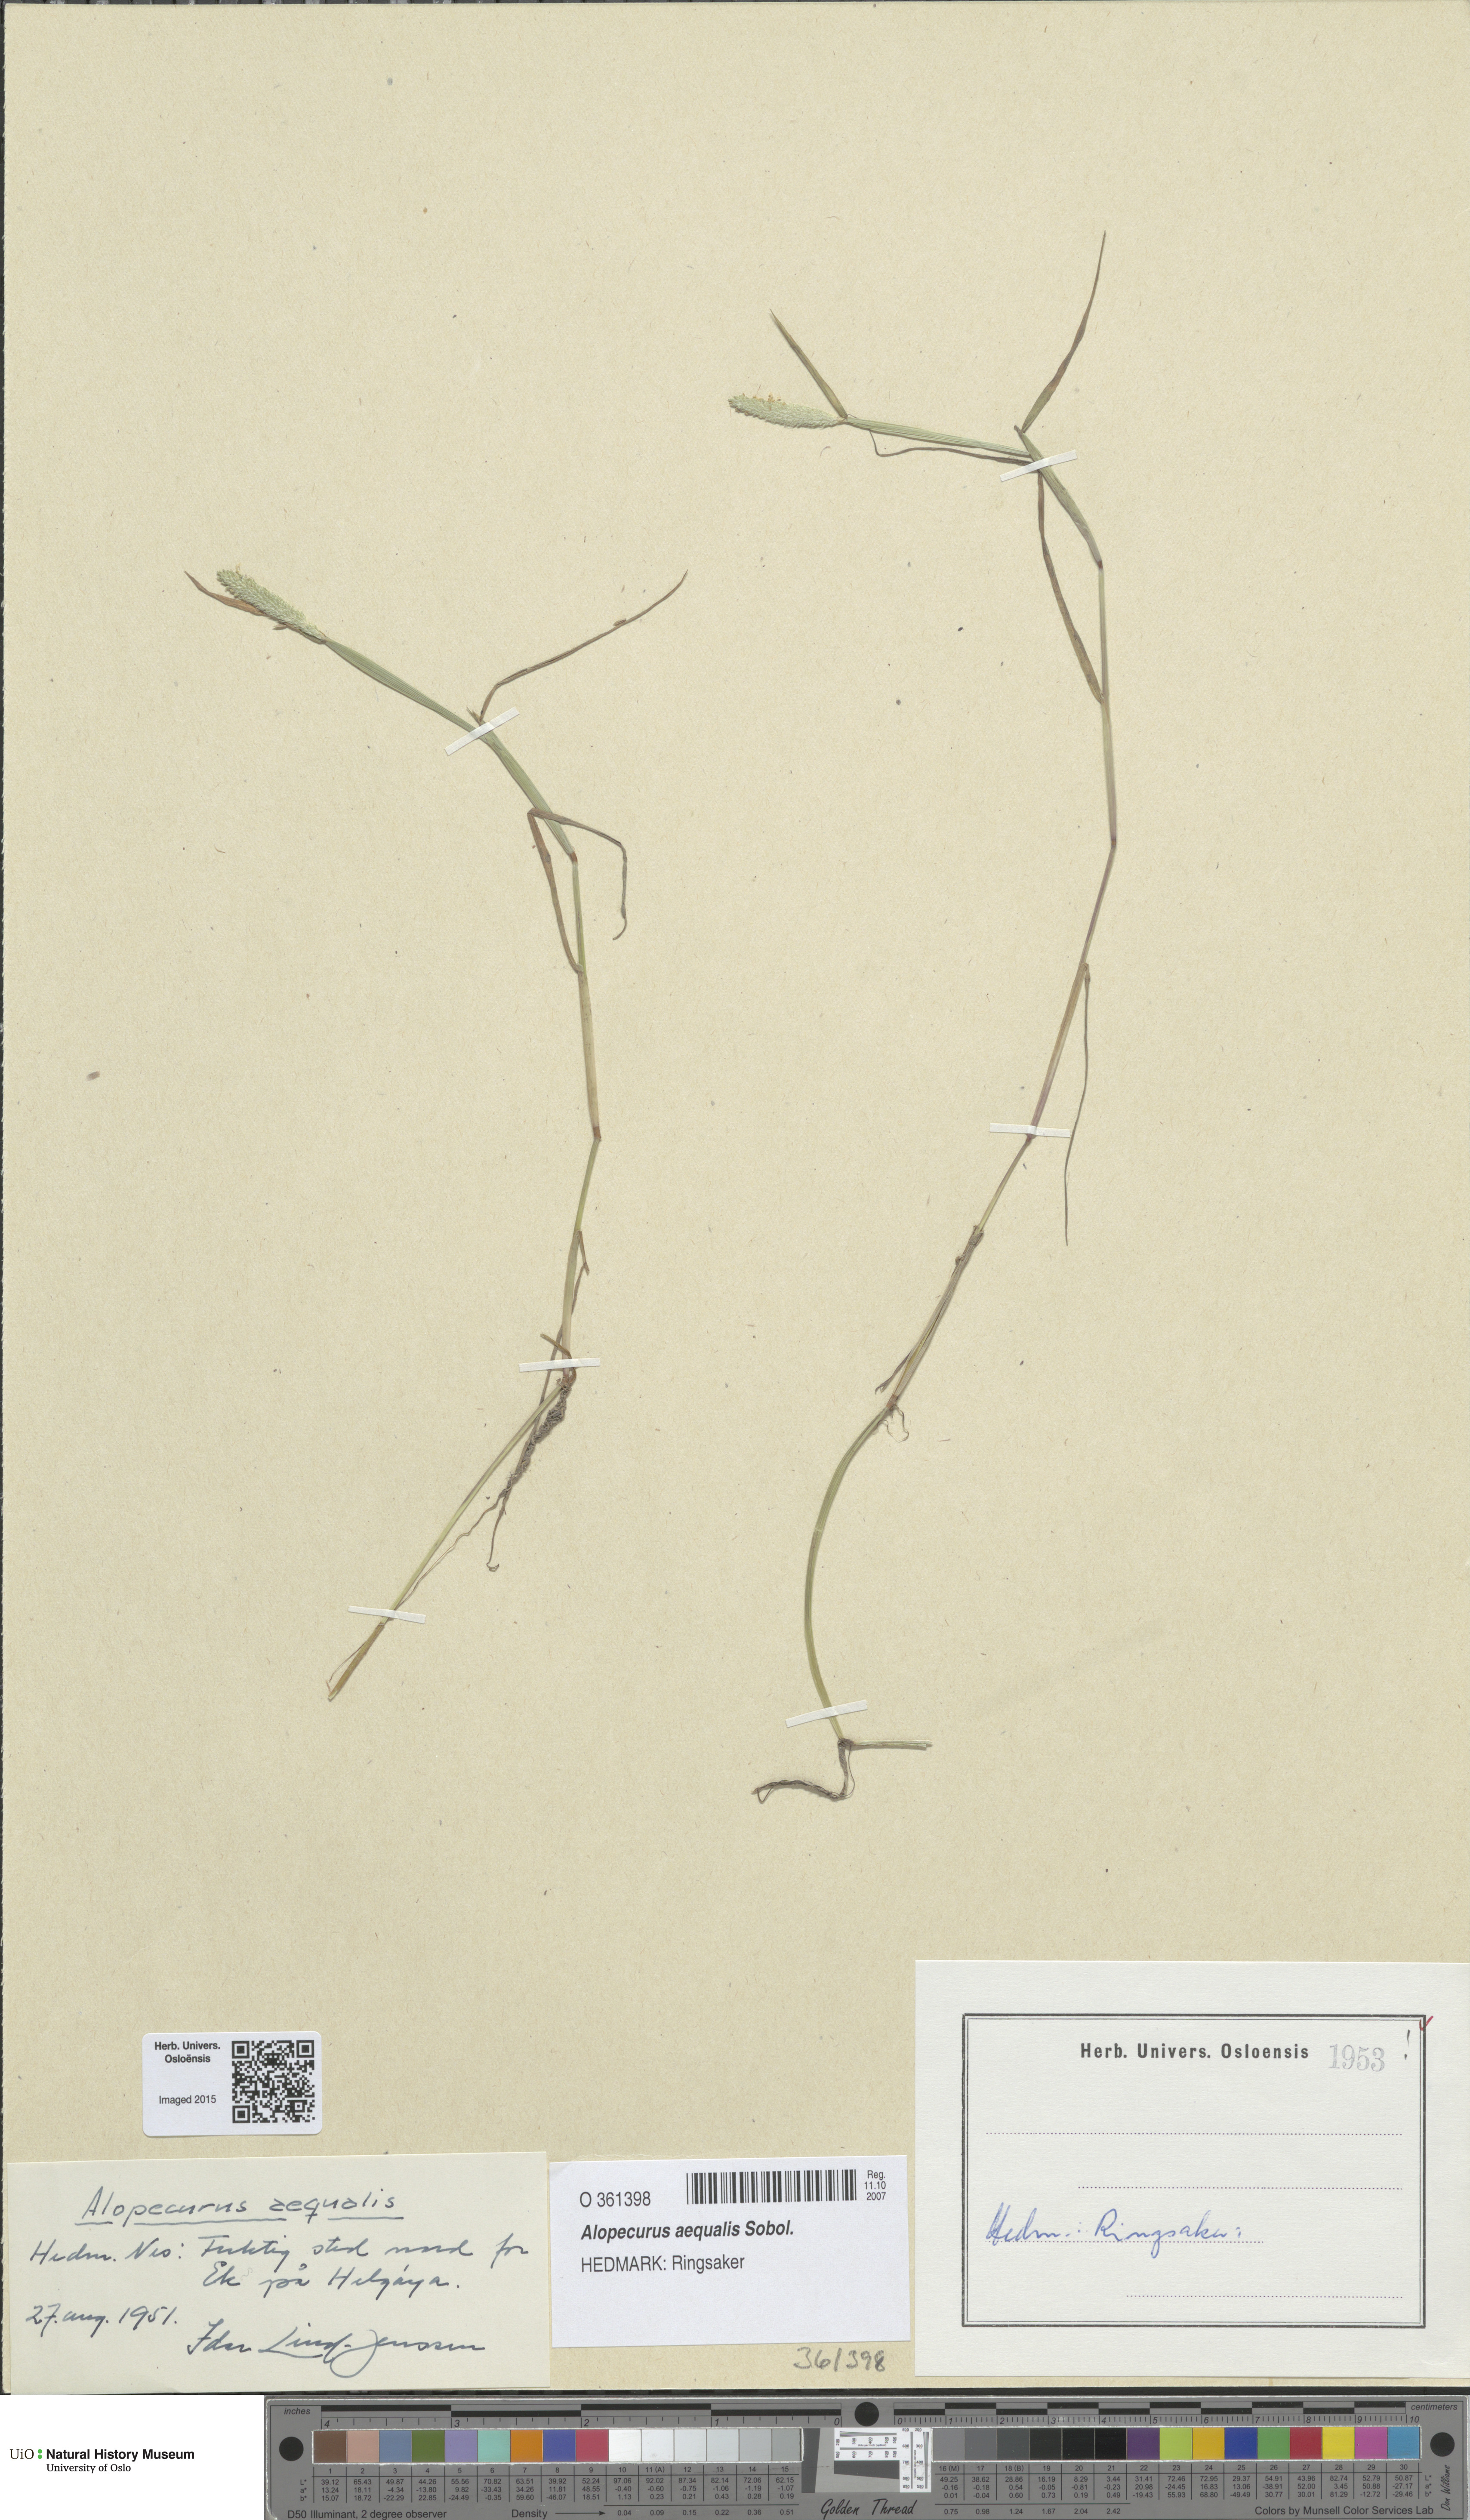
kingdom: Plantae
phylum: Tracheophyta
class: Liliopsida
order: Poales
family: Poaceae
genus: Alopecurus
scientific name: Alopecurus aequalis
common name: Orange foxtail
